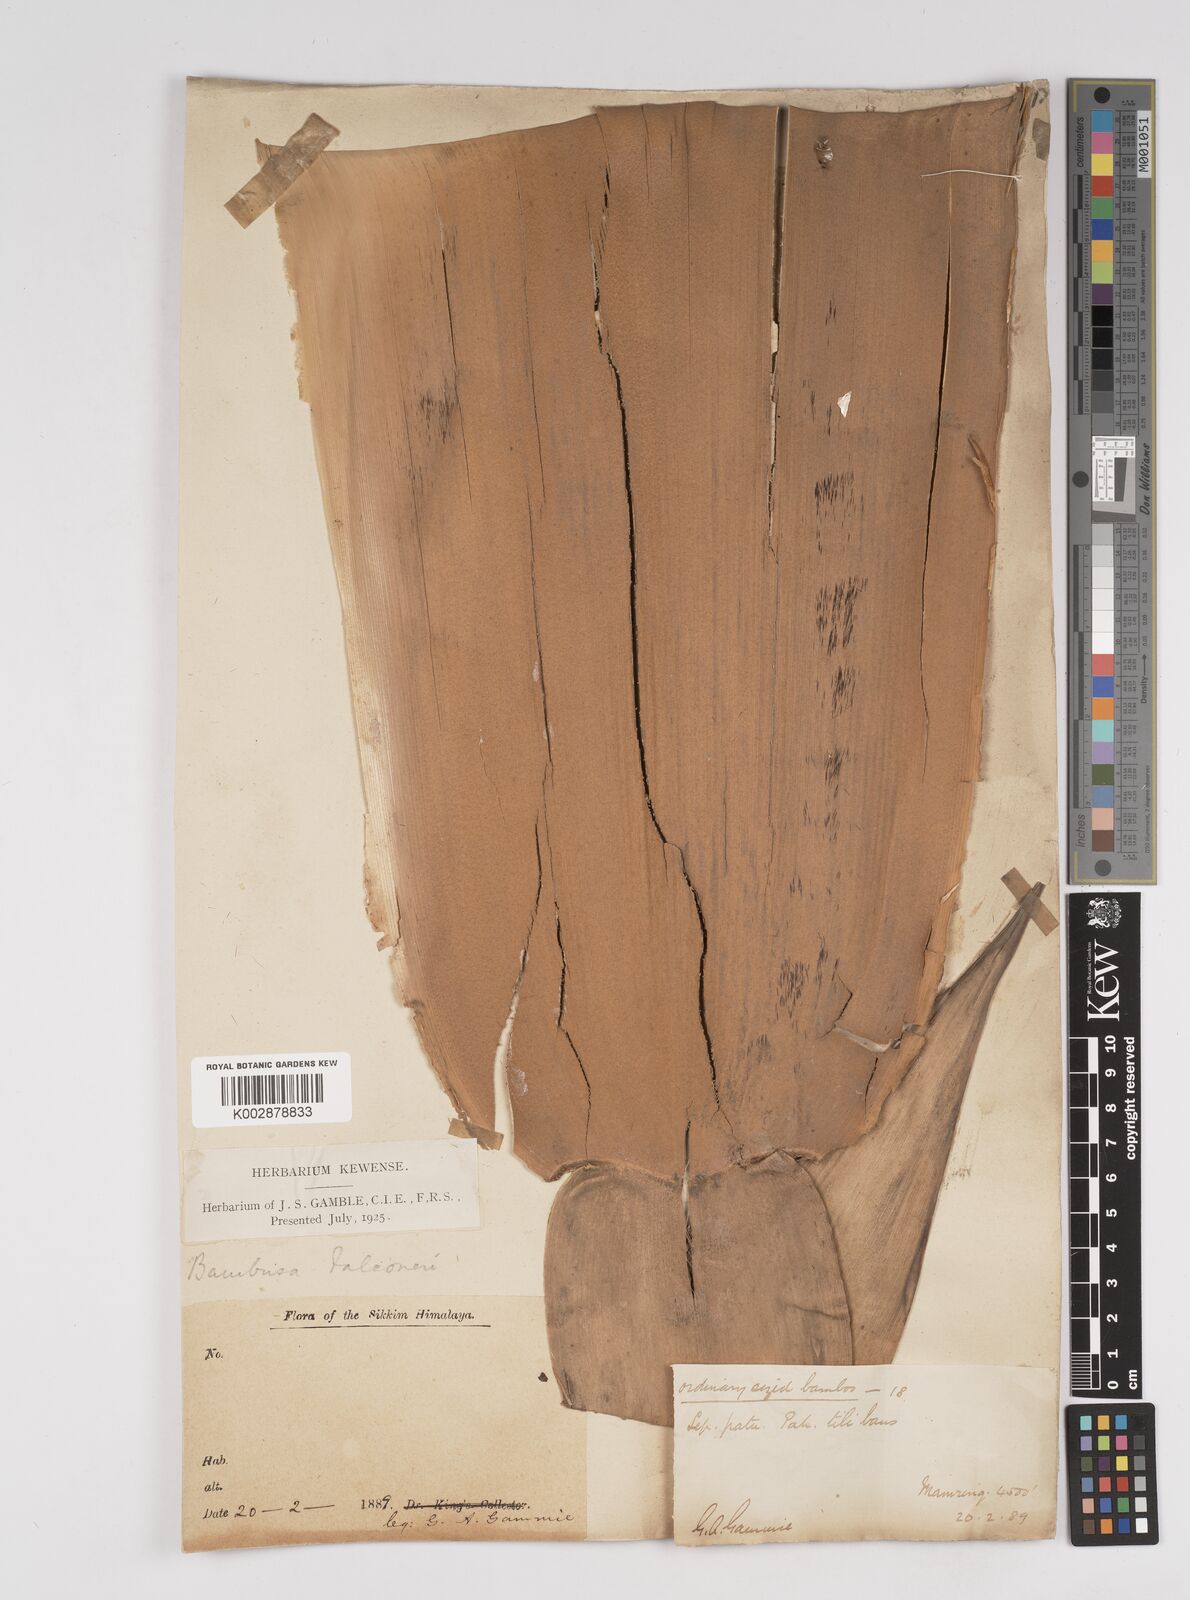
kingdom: Plantae
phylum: Tracheophyta
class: Liliopsida
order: Poales
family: Poaceae
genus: Dendrocalamus
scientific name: Dendrocalamus hookeri
